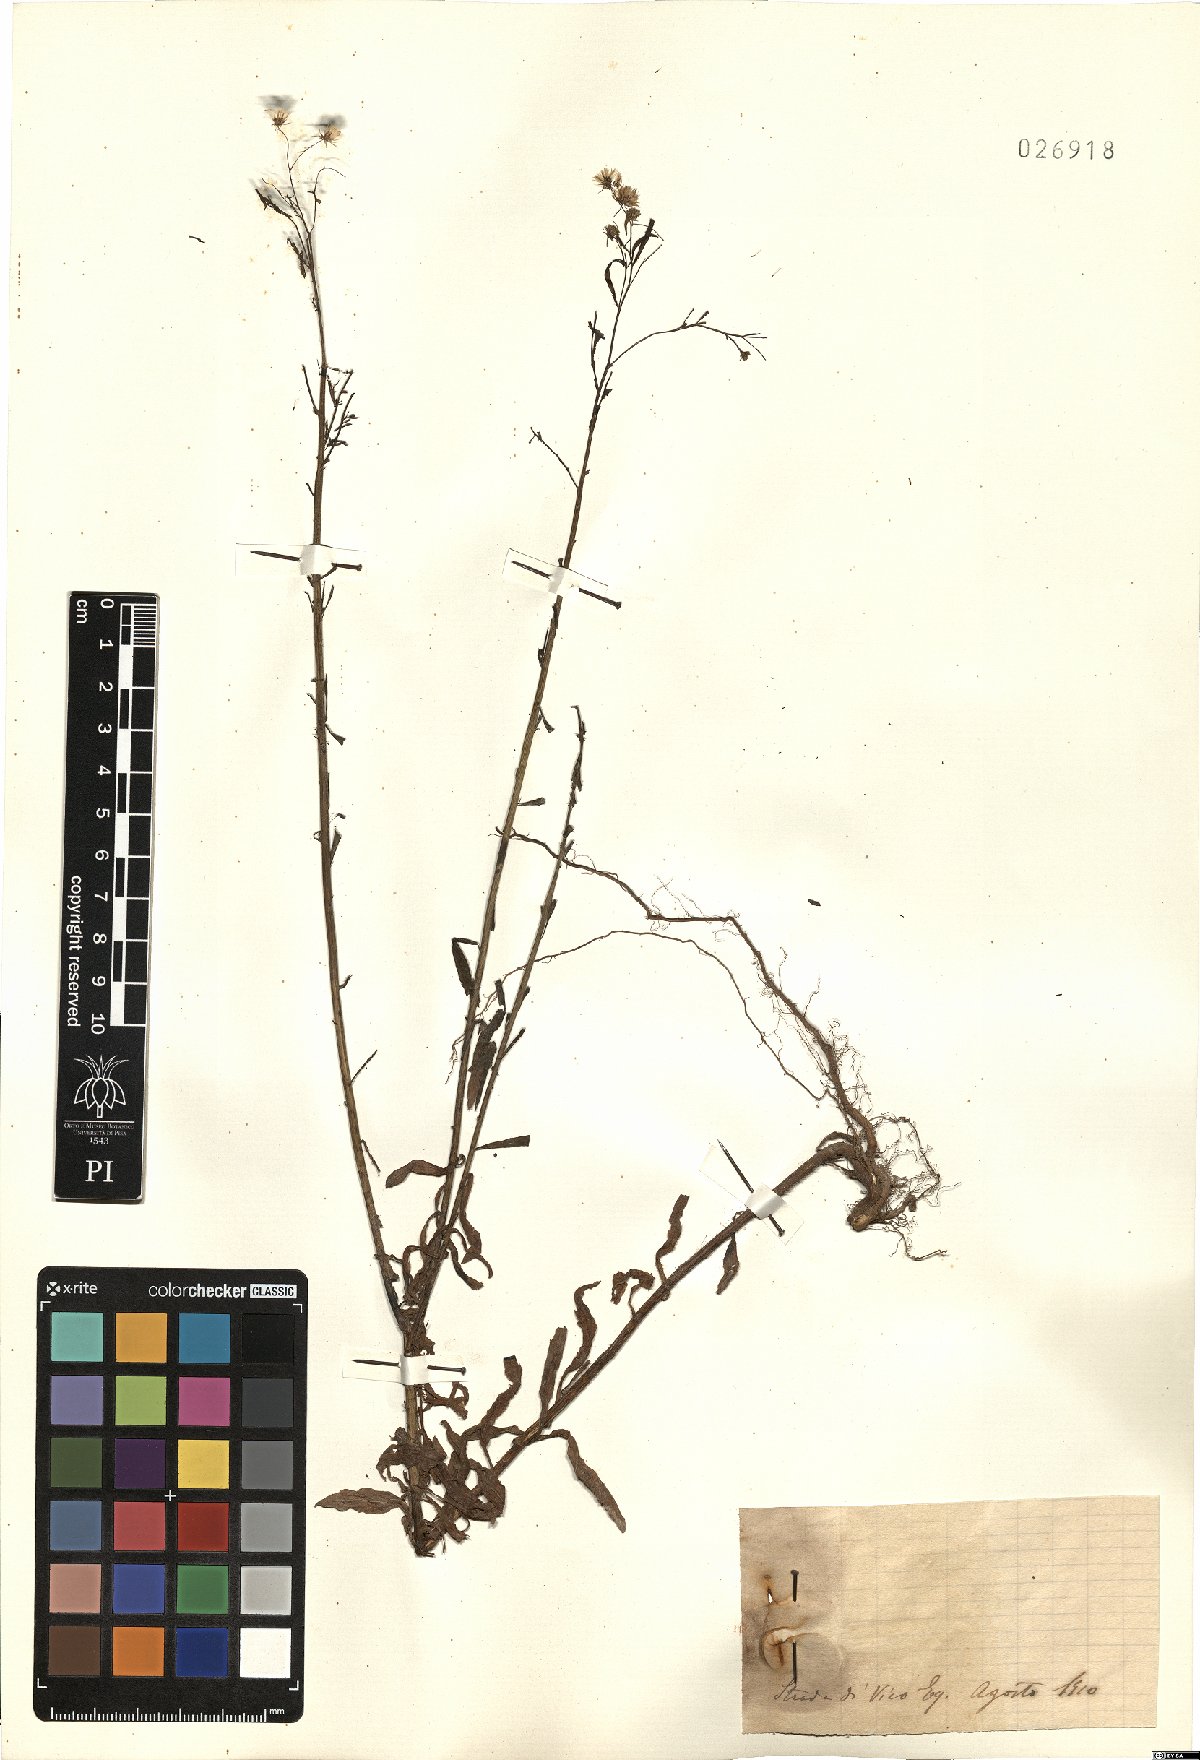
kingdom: Plantae
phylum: Tracheophyta
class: Magnoliopsida
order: Asterales
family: Asteraceae
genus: Erigeron
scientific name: Erigeron
